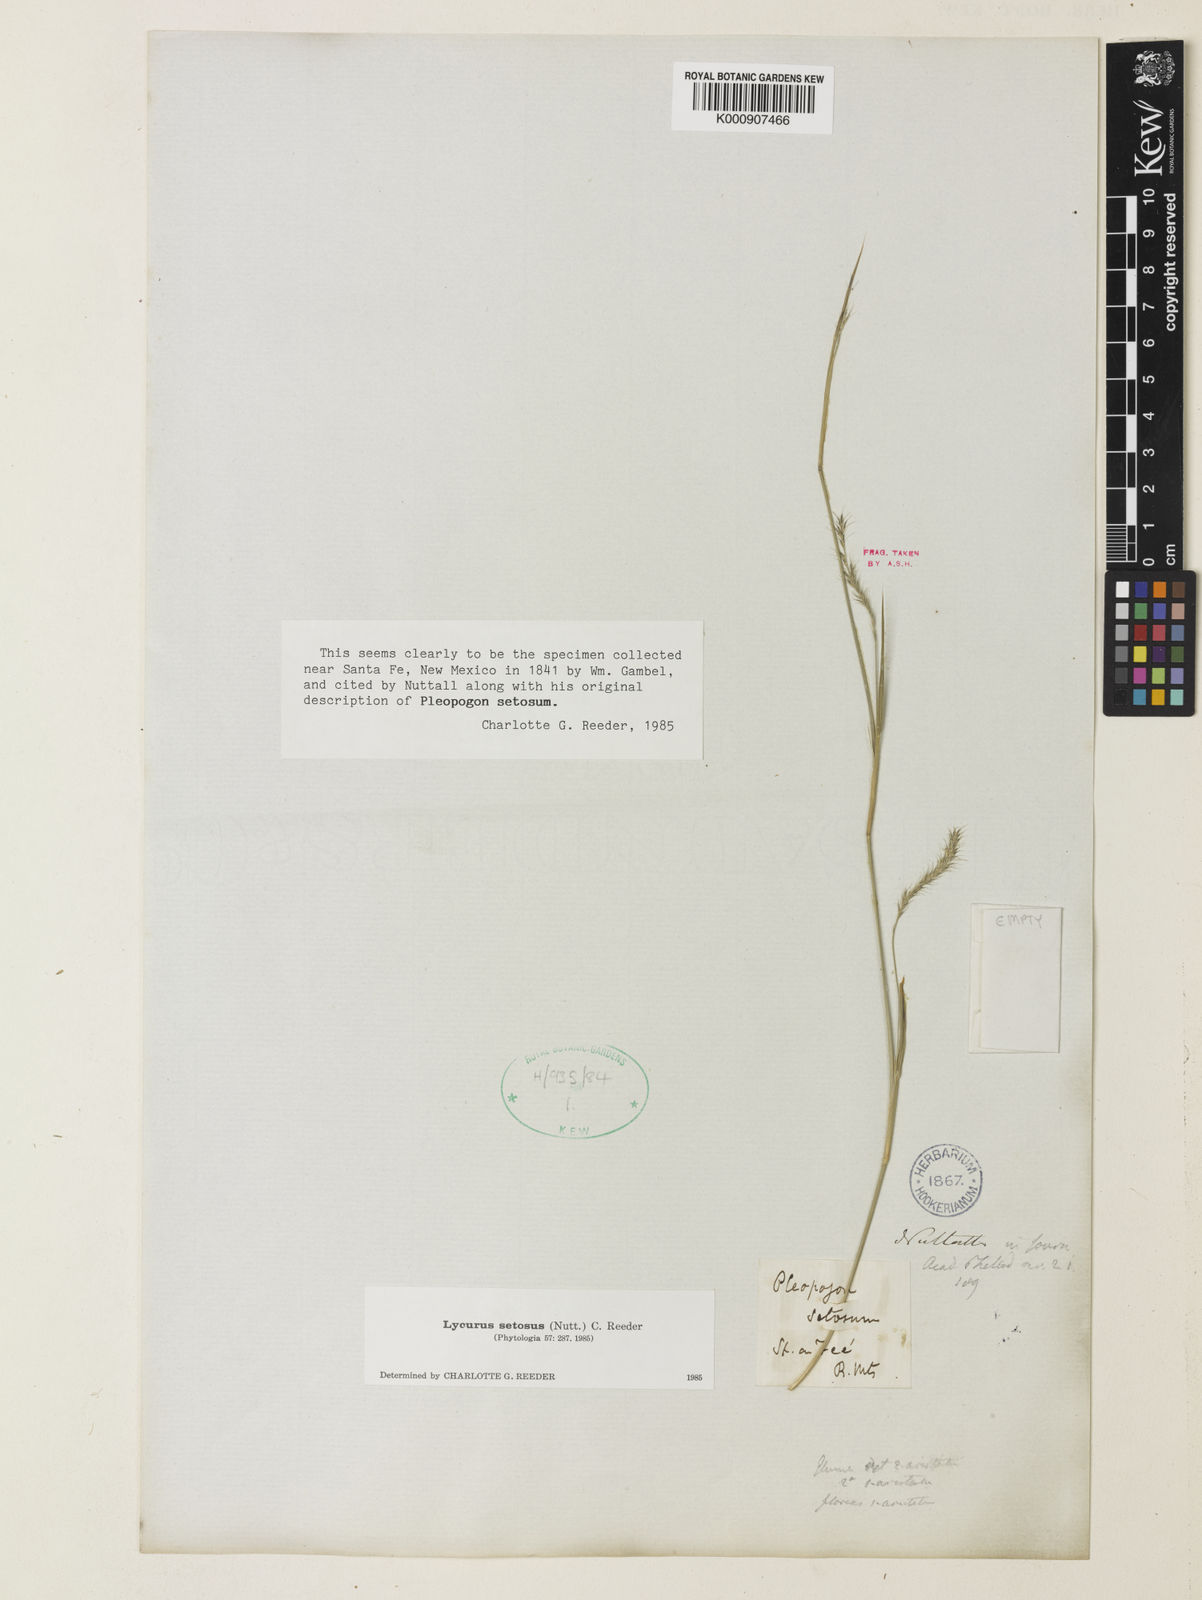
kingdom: Plantae
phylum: Tracheophyta
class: Liliopsida
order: Poales
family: Poaceae
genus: Muhlenbergia
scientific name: Muhlenbergia alopecuroides
